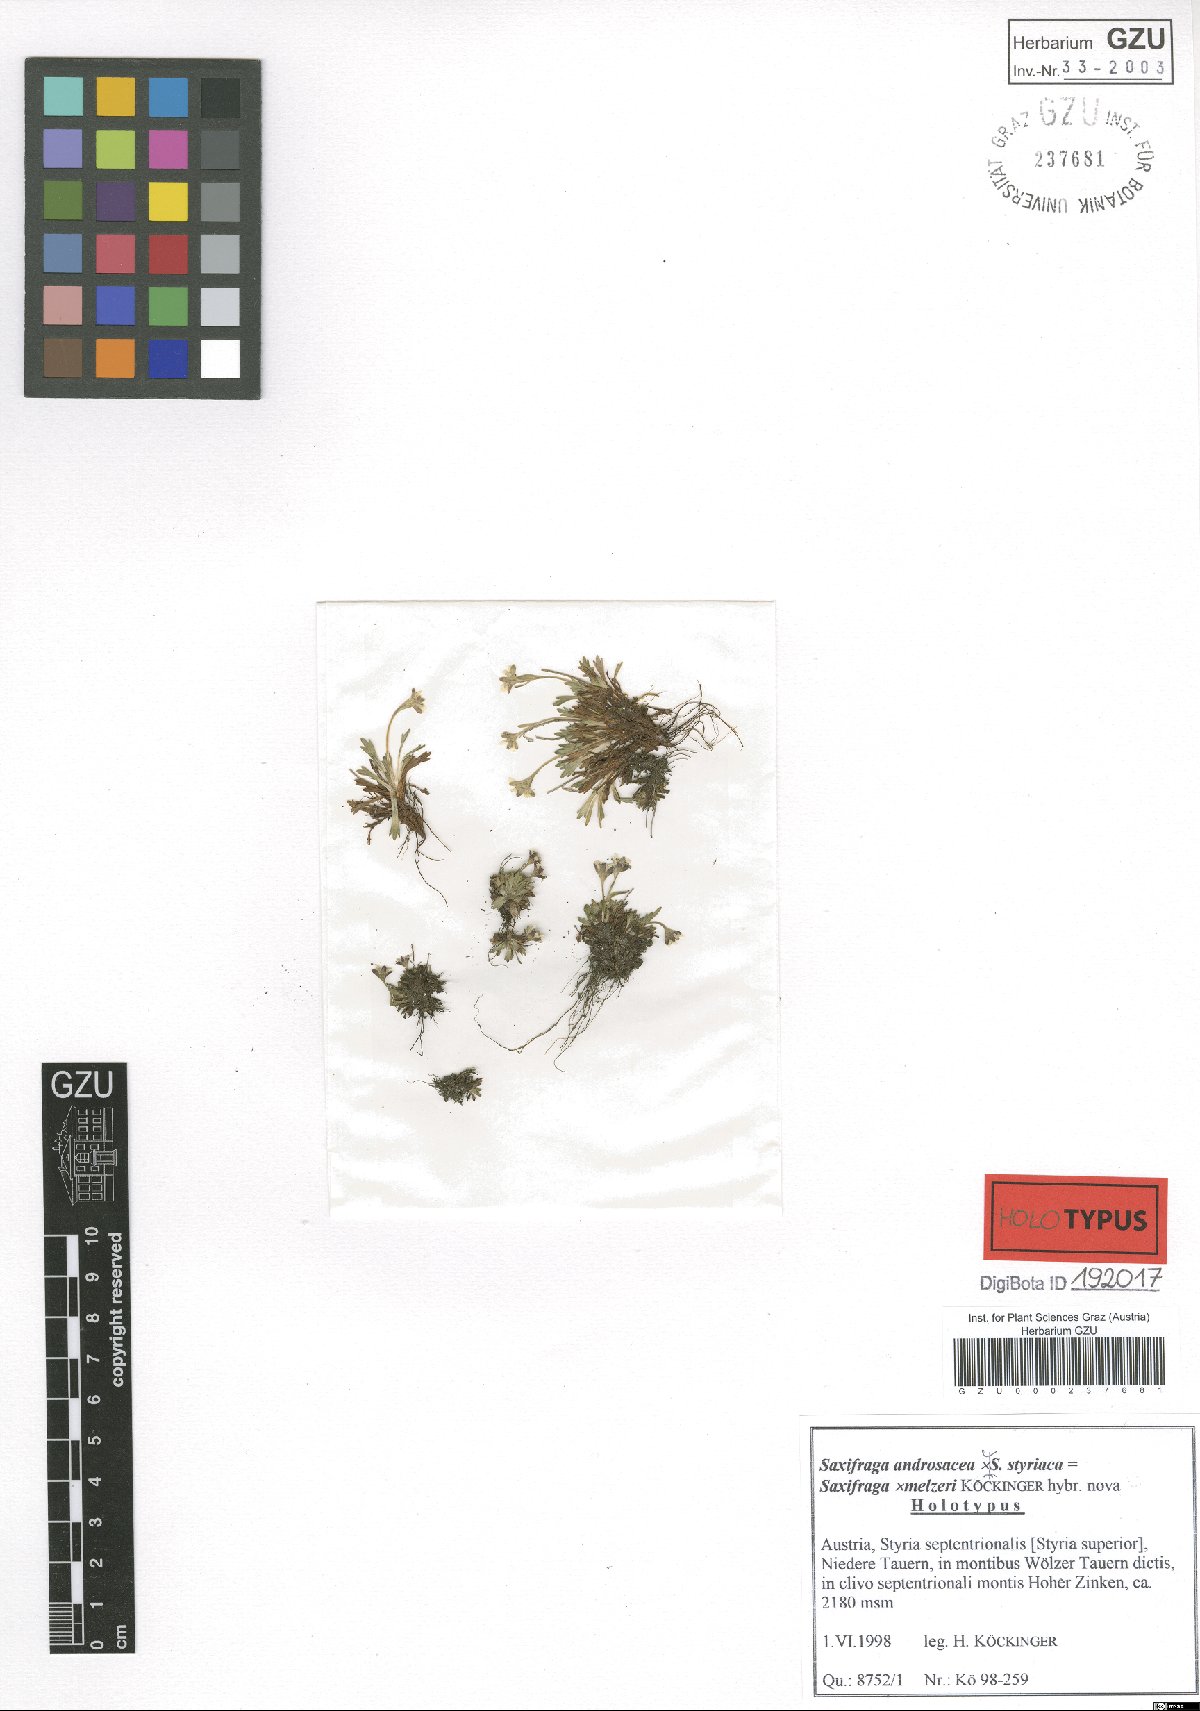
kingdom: Plantae
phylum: Tracheophyta
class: Magnoliopsida
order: Saxifragales
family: Saxifragaceae
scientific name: Saxifragaceae
